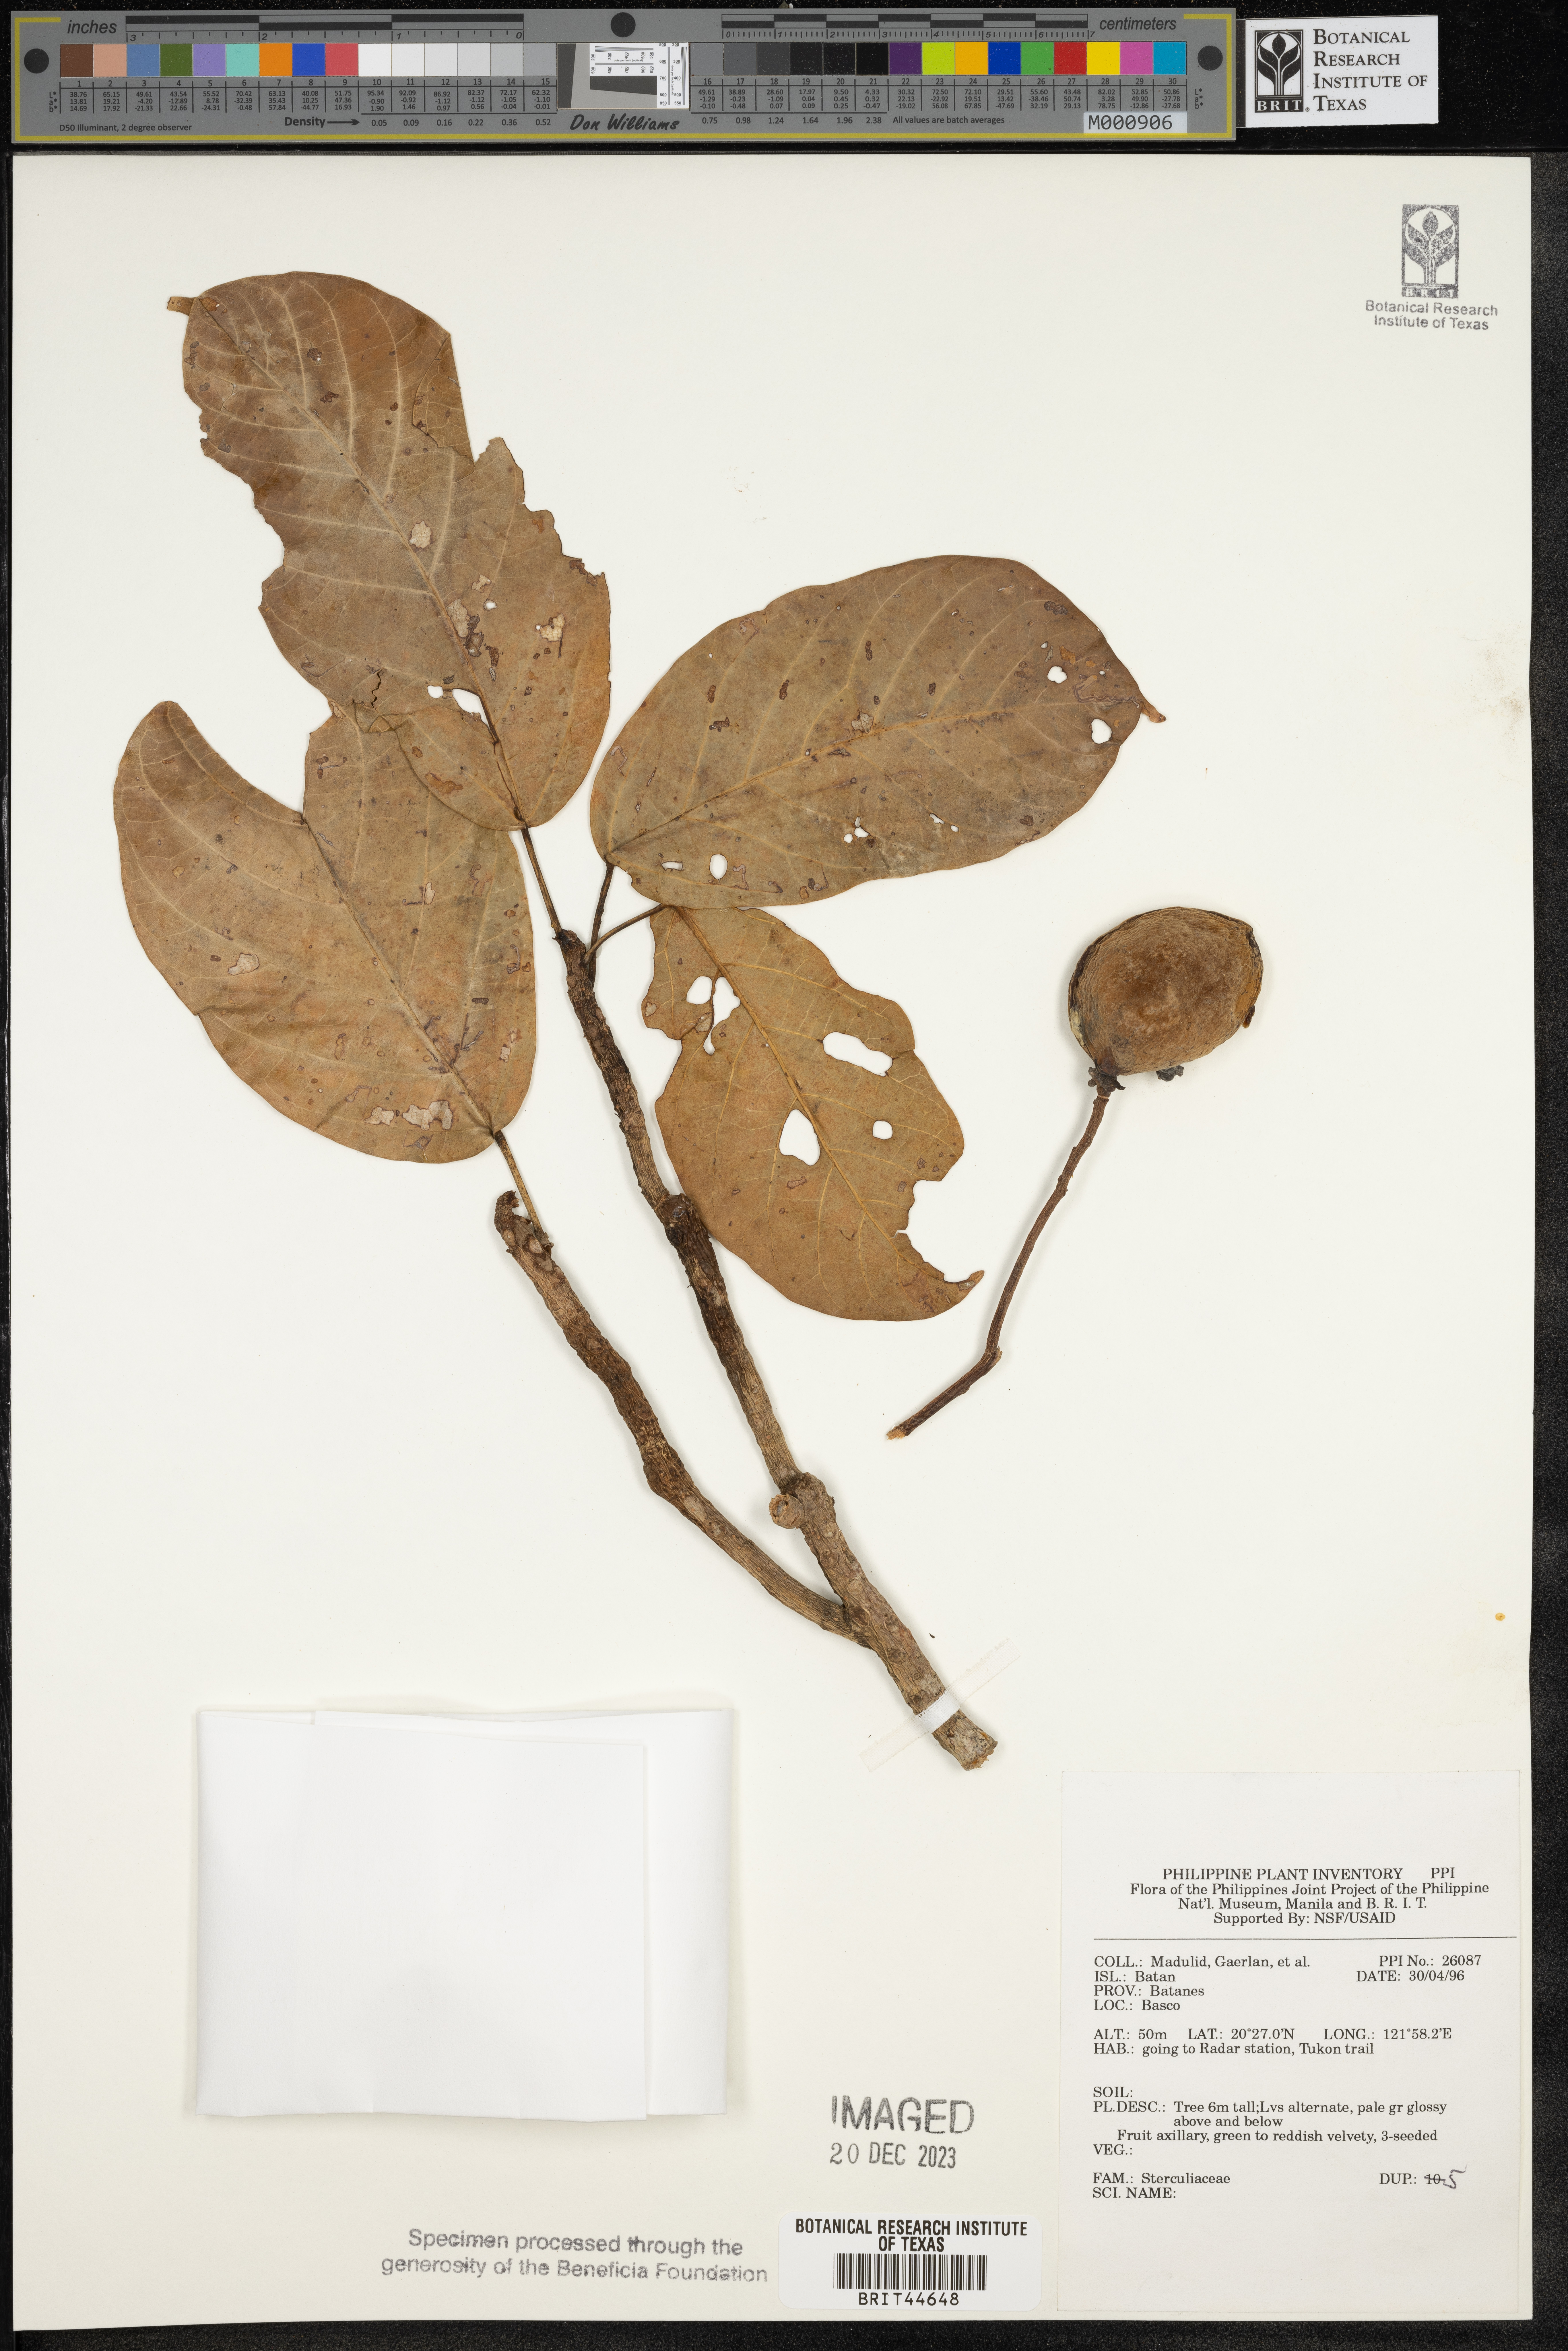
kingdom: Plantae
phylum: Tracheophyta
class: Magnoliopsida
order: Malvales
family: Sterculiaceae
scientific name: Sterculiaceae
